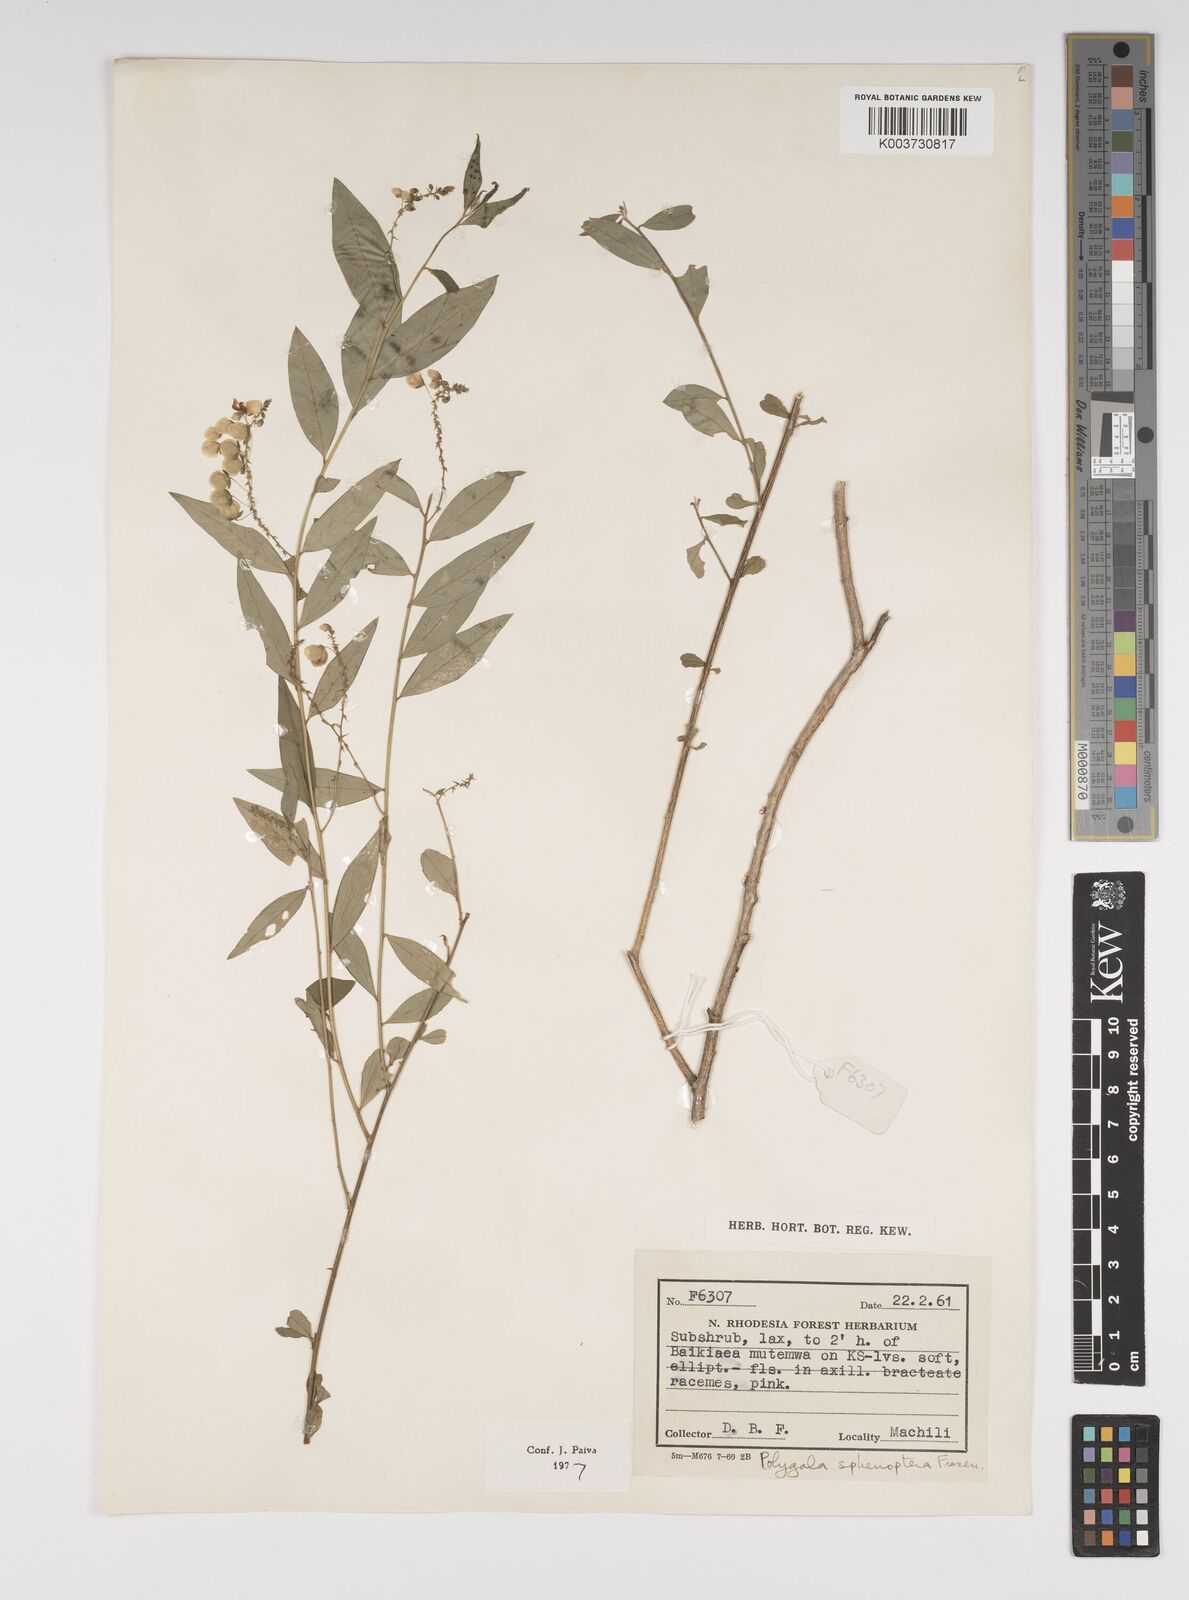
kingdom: Plantae
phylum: Tracheophyta
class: Magnoliopsida
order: Fabales
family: Polygalaceae
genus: Polygala
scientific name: Polygala sphenoptera
